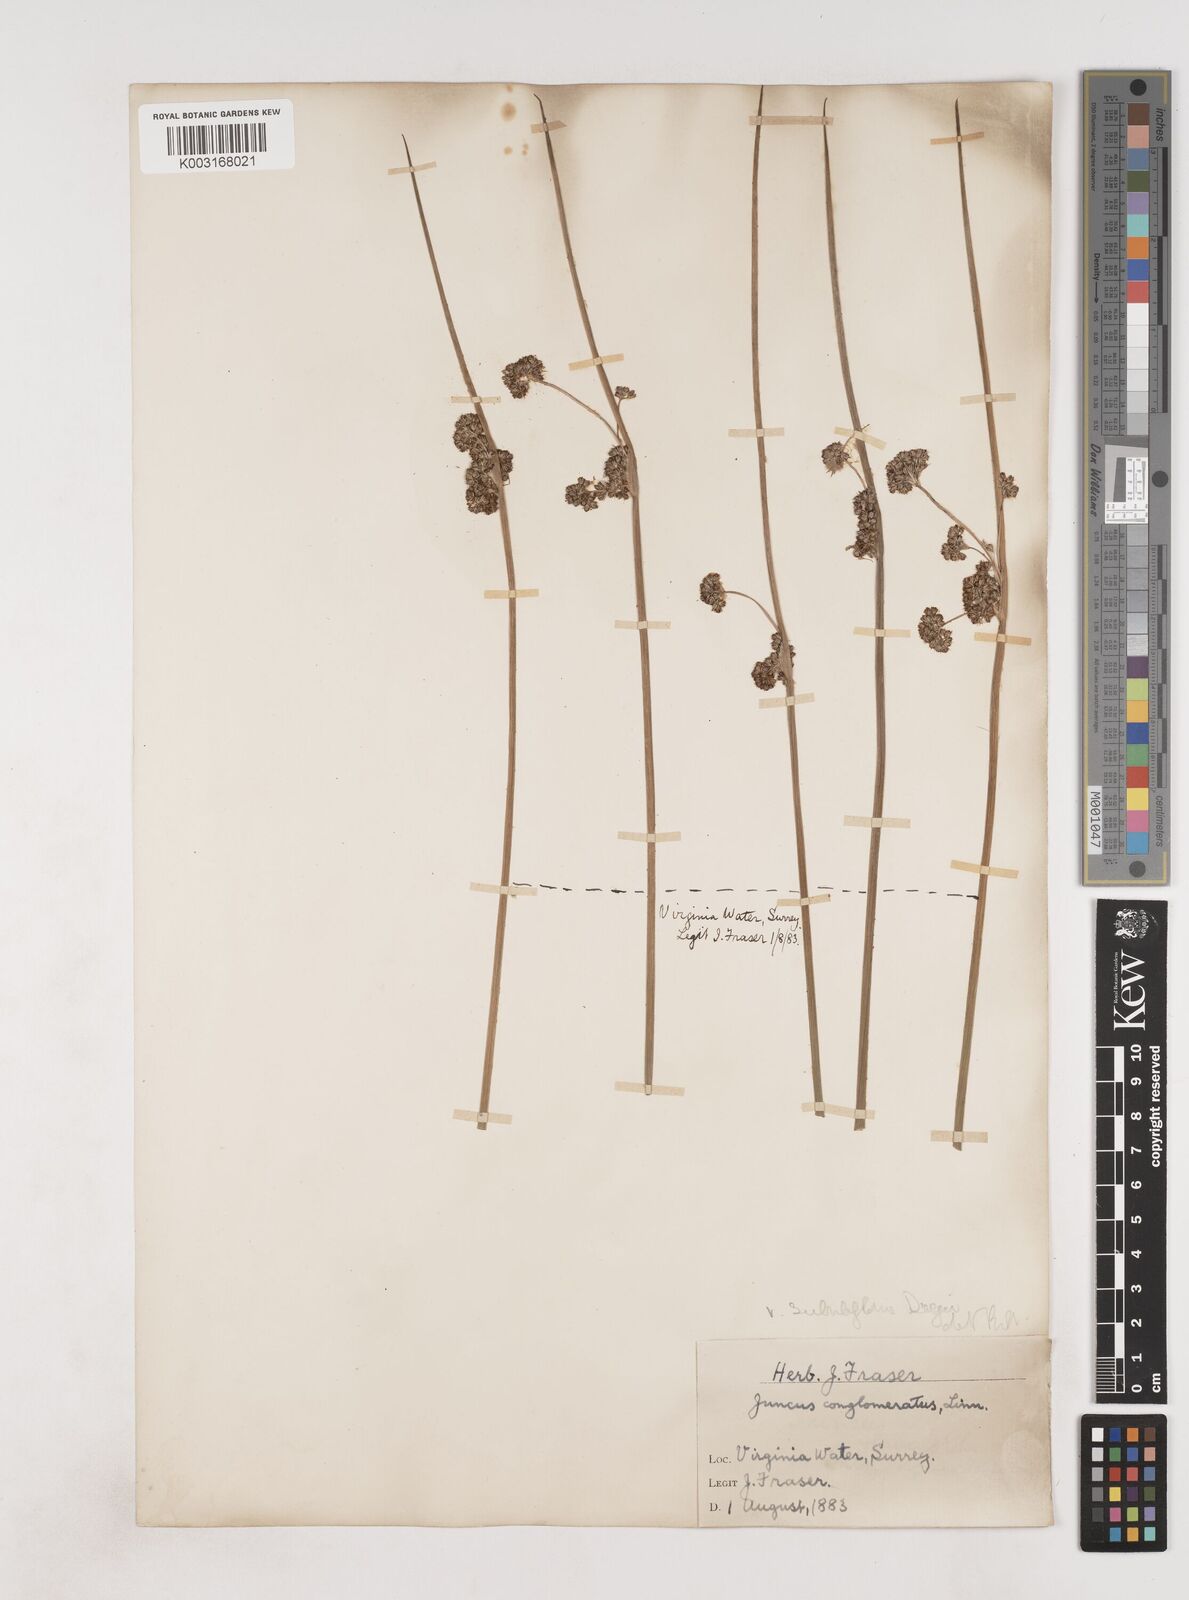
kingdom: Plantae
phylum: Tracheophyta
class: Liliopsida
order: Poales
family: Juncaceae
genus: Juncus
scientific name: Juncus conglomeratus
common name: Compact rush
